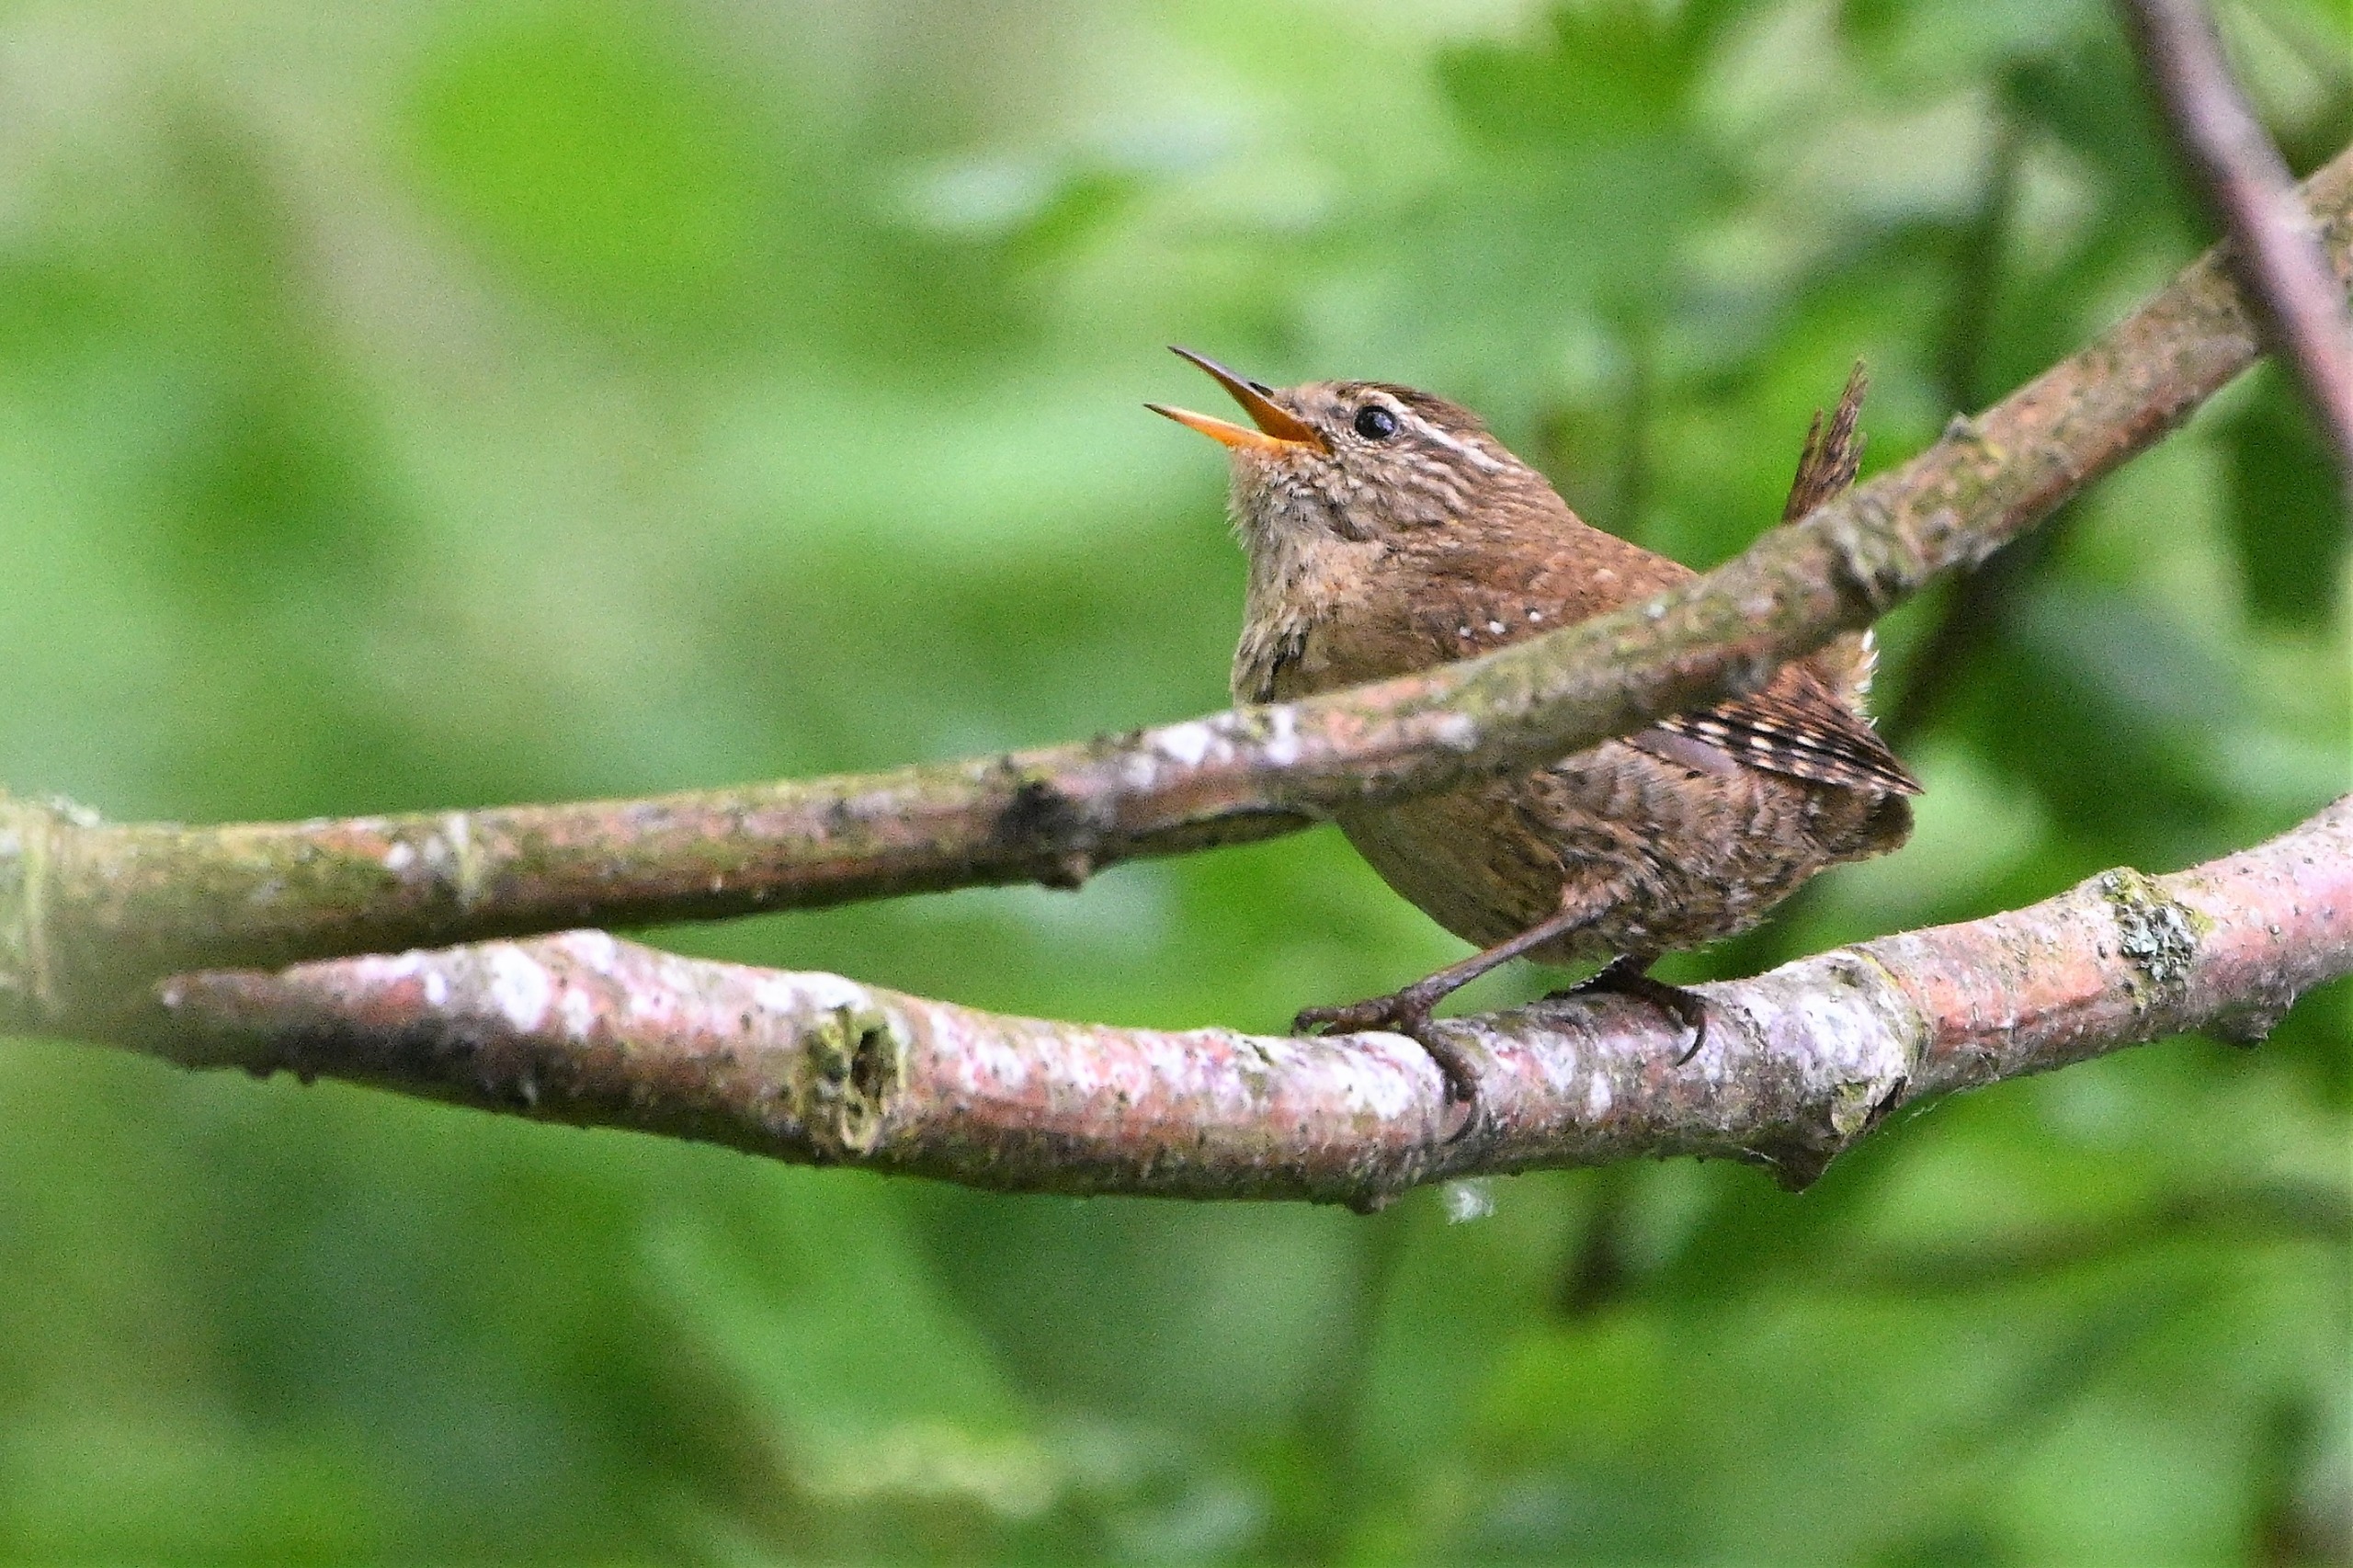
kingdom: Animalia
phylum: Chordata
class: Aves
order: Passeriformes
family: Troglodytidae
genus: Troglodytes
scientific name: Troglodytes troglodytes
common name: Gærdesmutte
